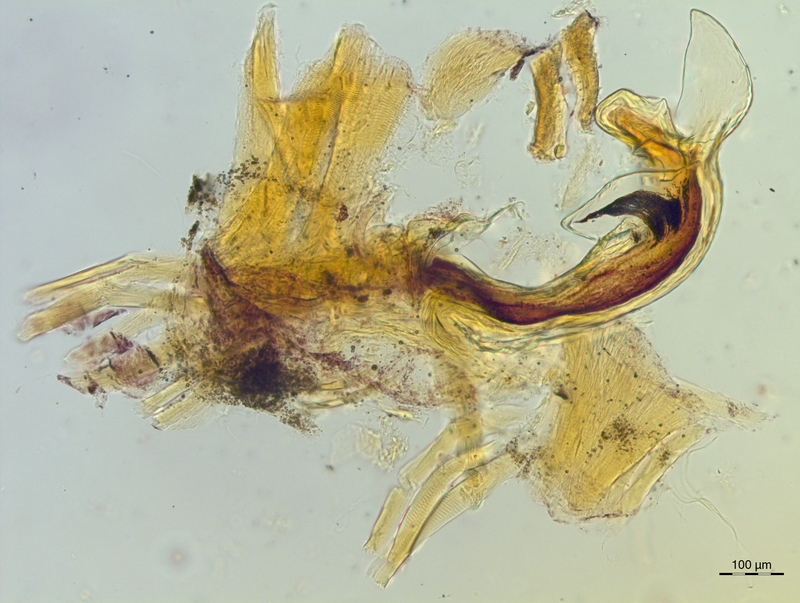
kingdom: Animalia
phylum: Arthropoda
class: Diplopoda
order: Chordeumatida
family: Craspedosomatidae
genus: Craspedosoma
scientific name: Craspedosoma rawlinsii
